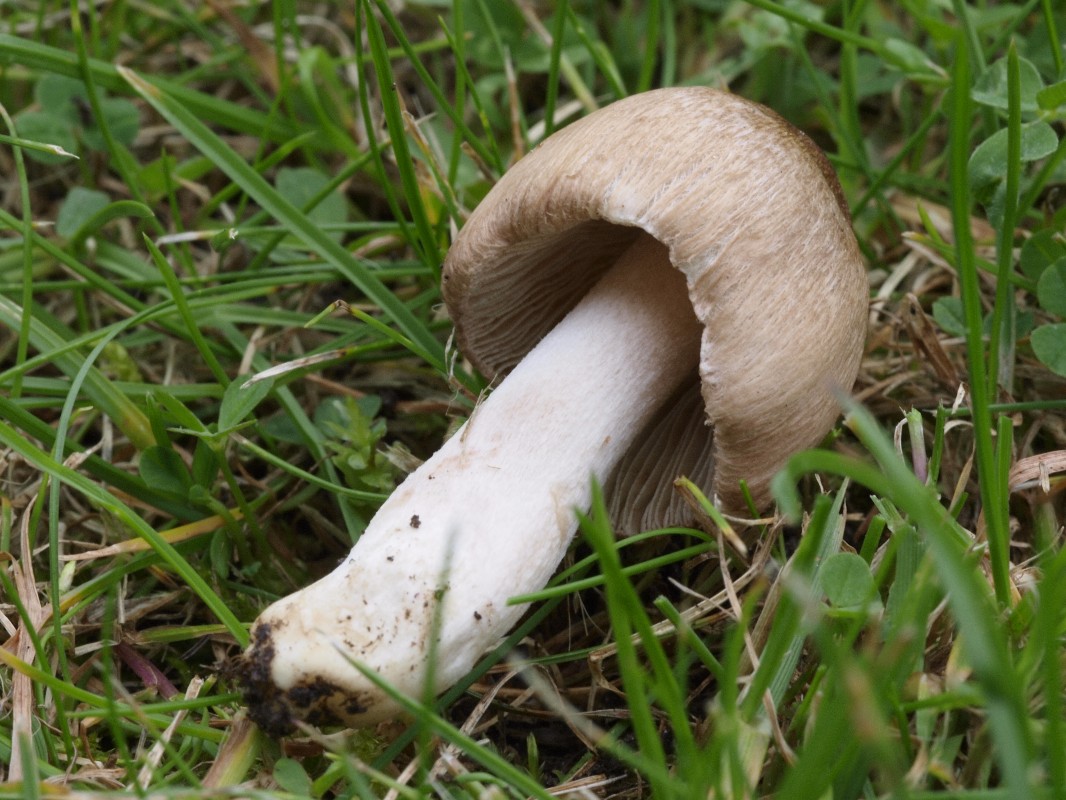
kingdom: Fungi
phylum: Basidiomycota
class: Agaricomycetes
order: Agaricales
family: Inocybaceae
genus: Inocybe
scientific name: Inocybe
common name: trævlhat
